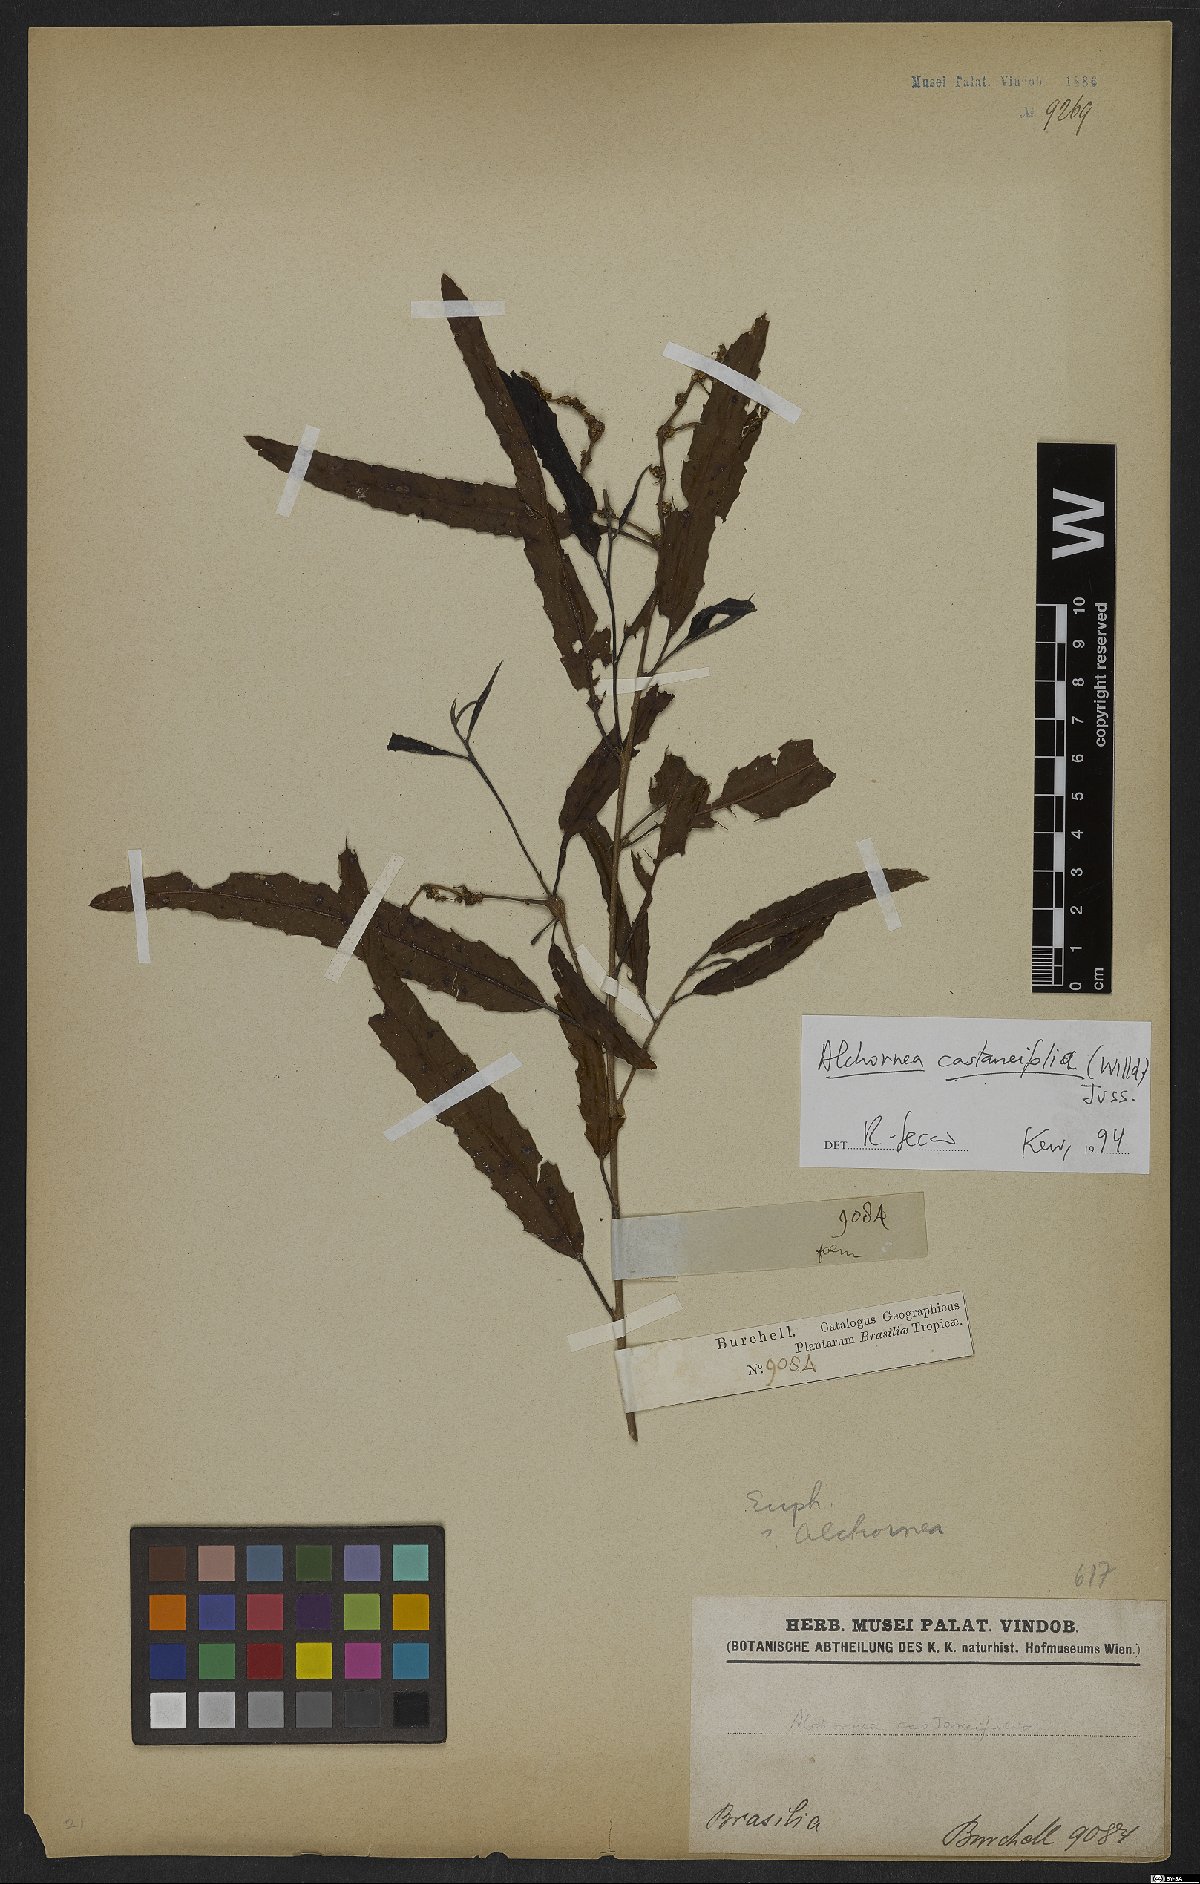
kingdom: Plantae
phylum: Tracheophyta
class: Magnoliopsida
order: Malpighiales
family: Euphorbiaceae
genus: Alchornea
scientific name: Alchornea castaneifolia
